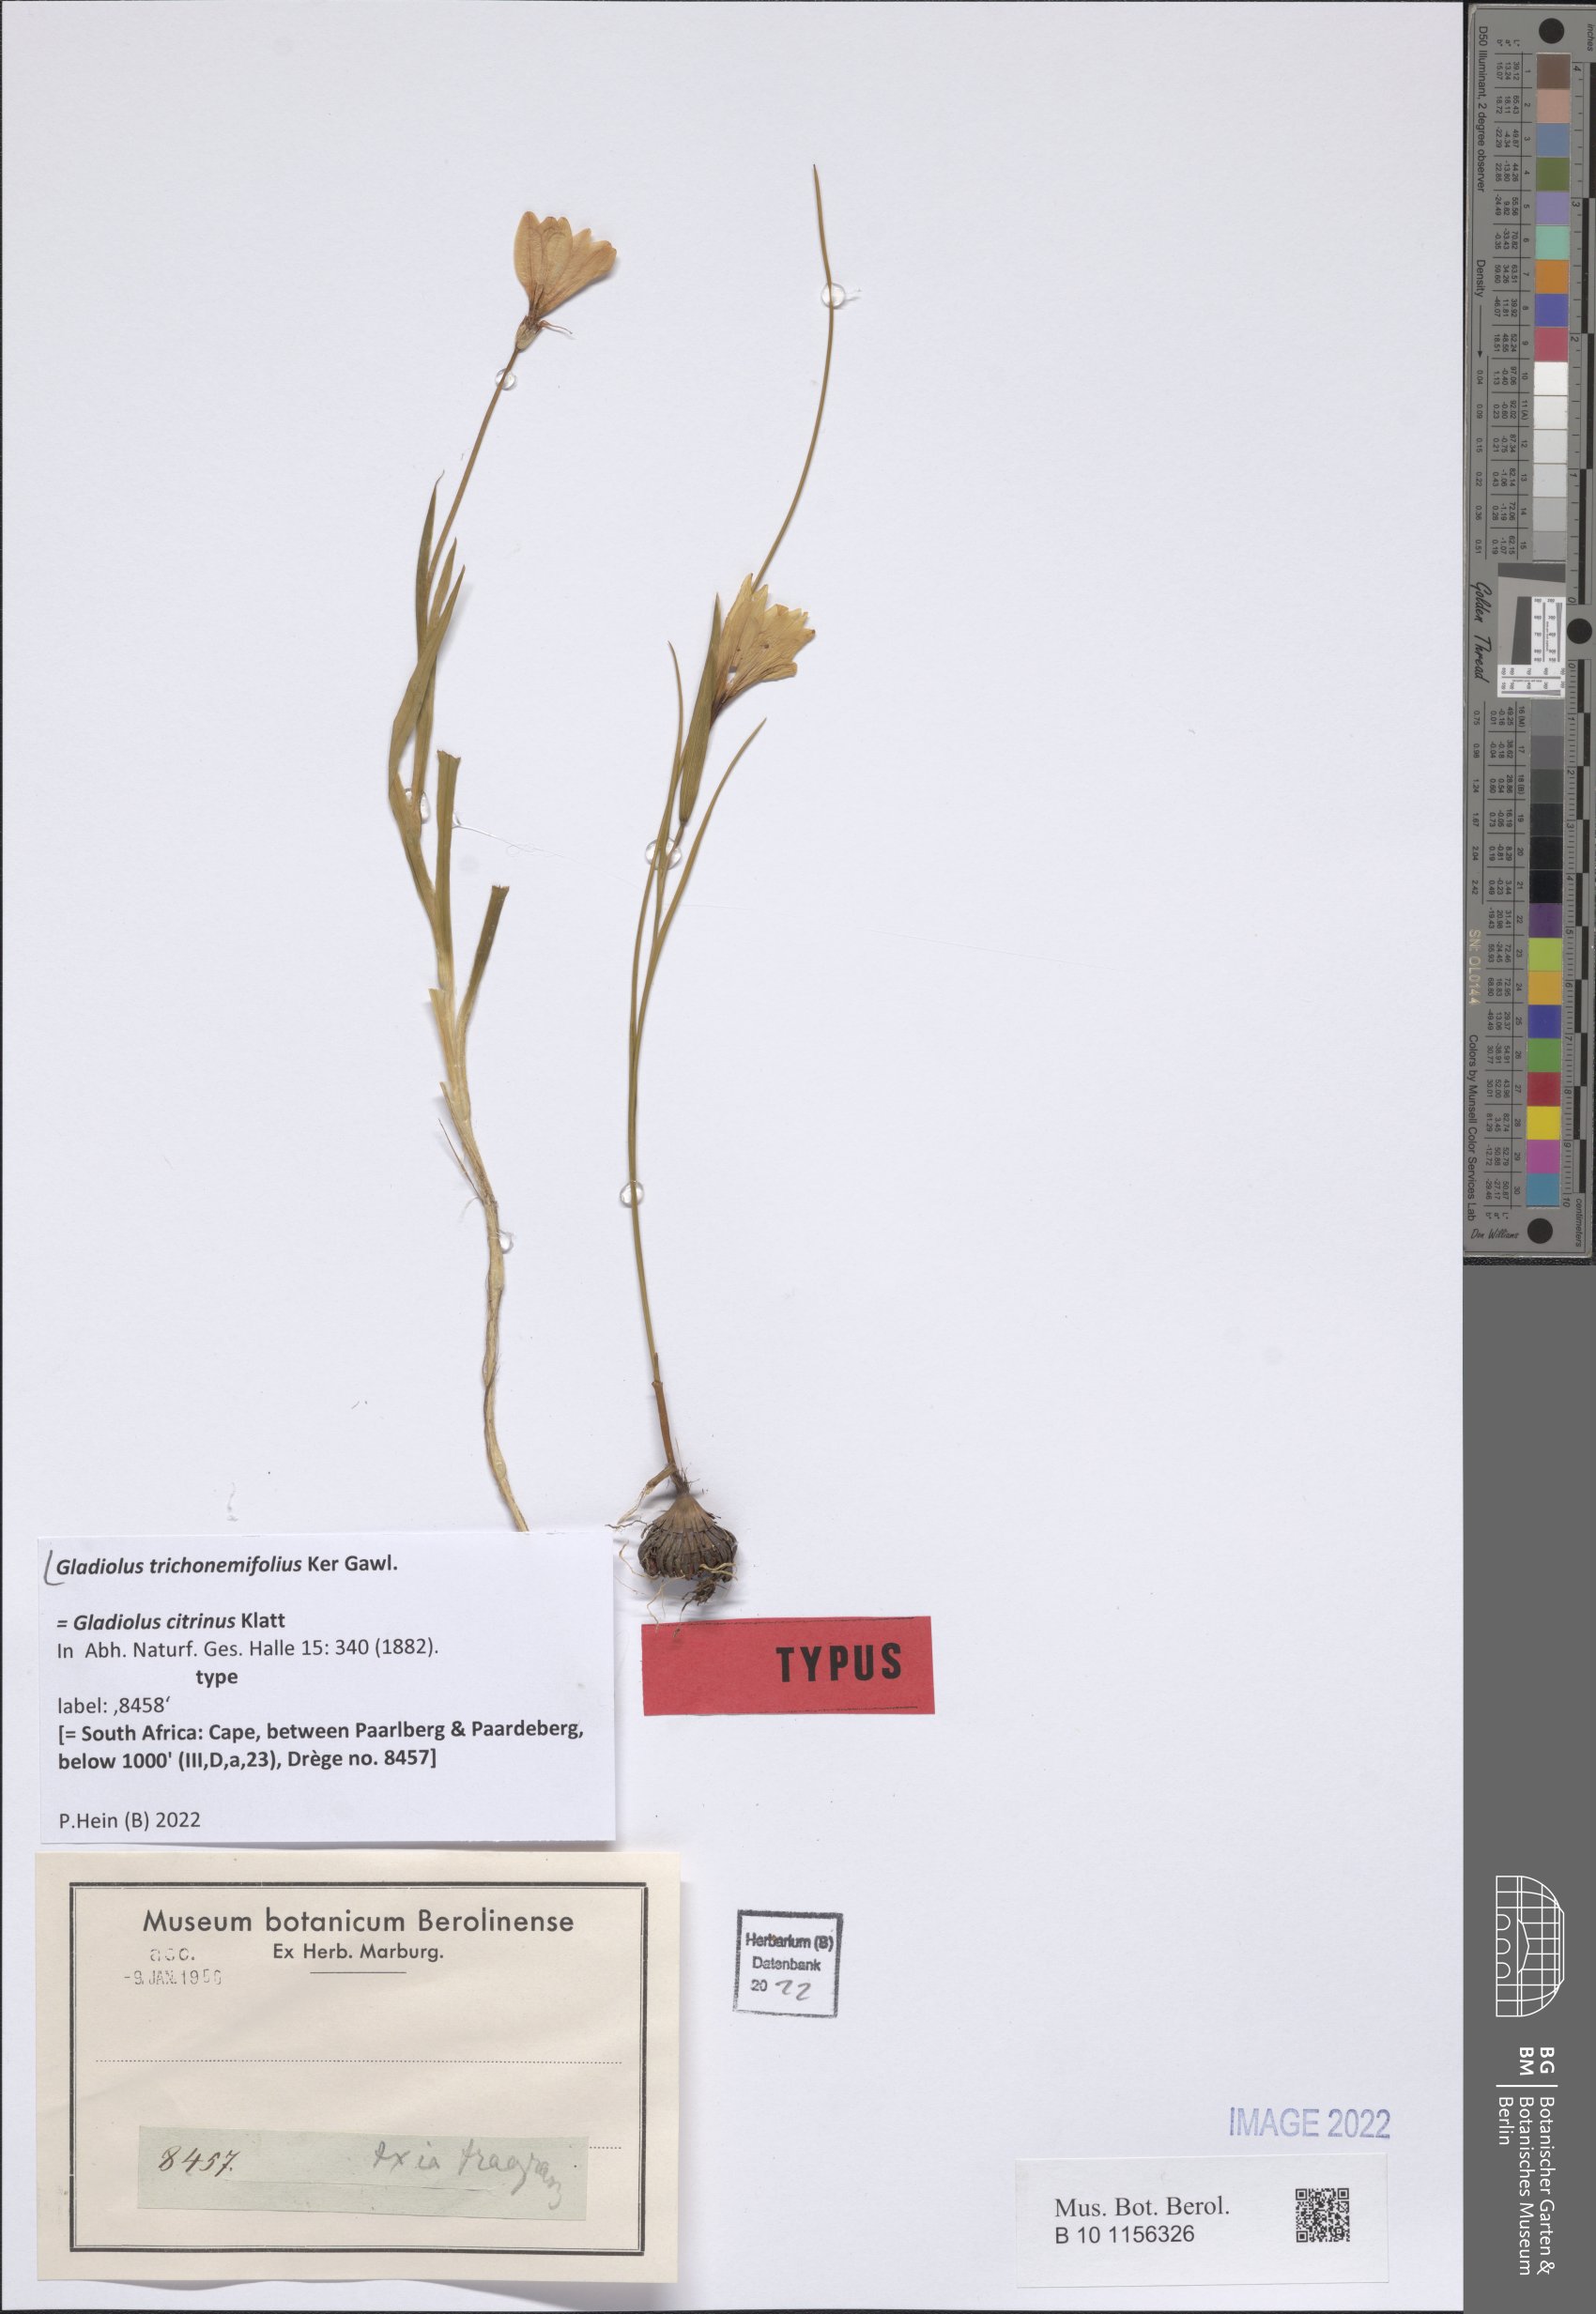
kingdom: Plantae
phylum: Tracheophyta
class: Liliopsida
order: Asparagales
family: Iridaceae
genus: Gladiolus
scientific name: Gladiolus trichonemifolius
